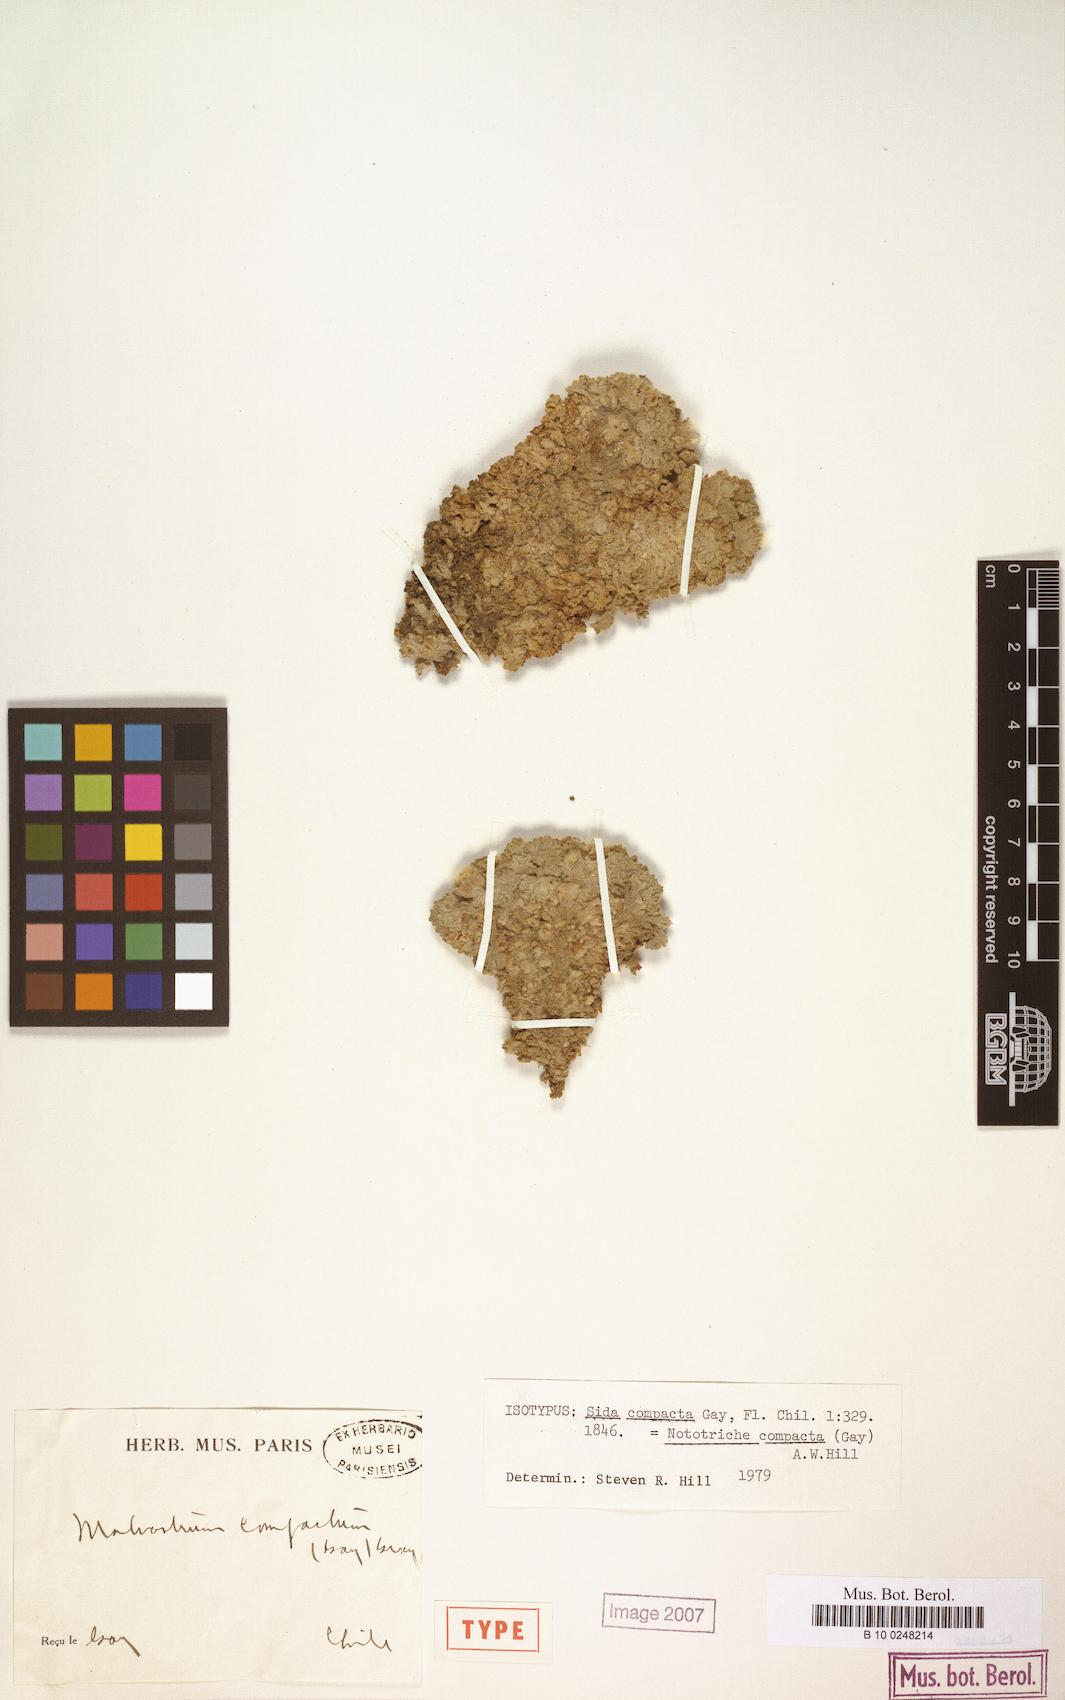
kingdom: Plantae
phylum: Tracheophyta
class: Magnoliopsida
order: Malvales
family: Malvaceae
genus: Nototriche
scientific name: Nototriche compacta
